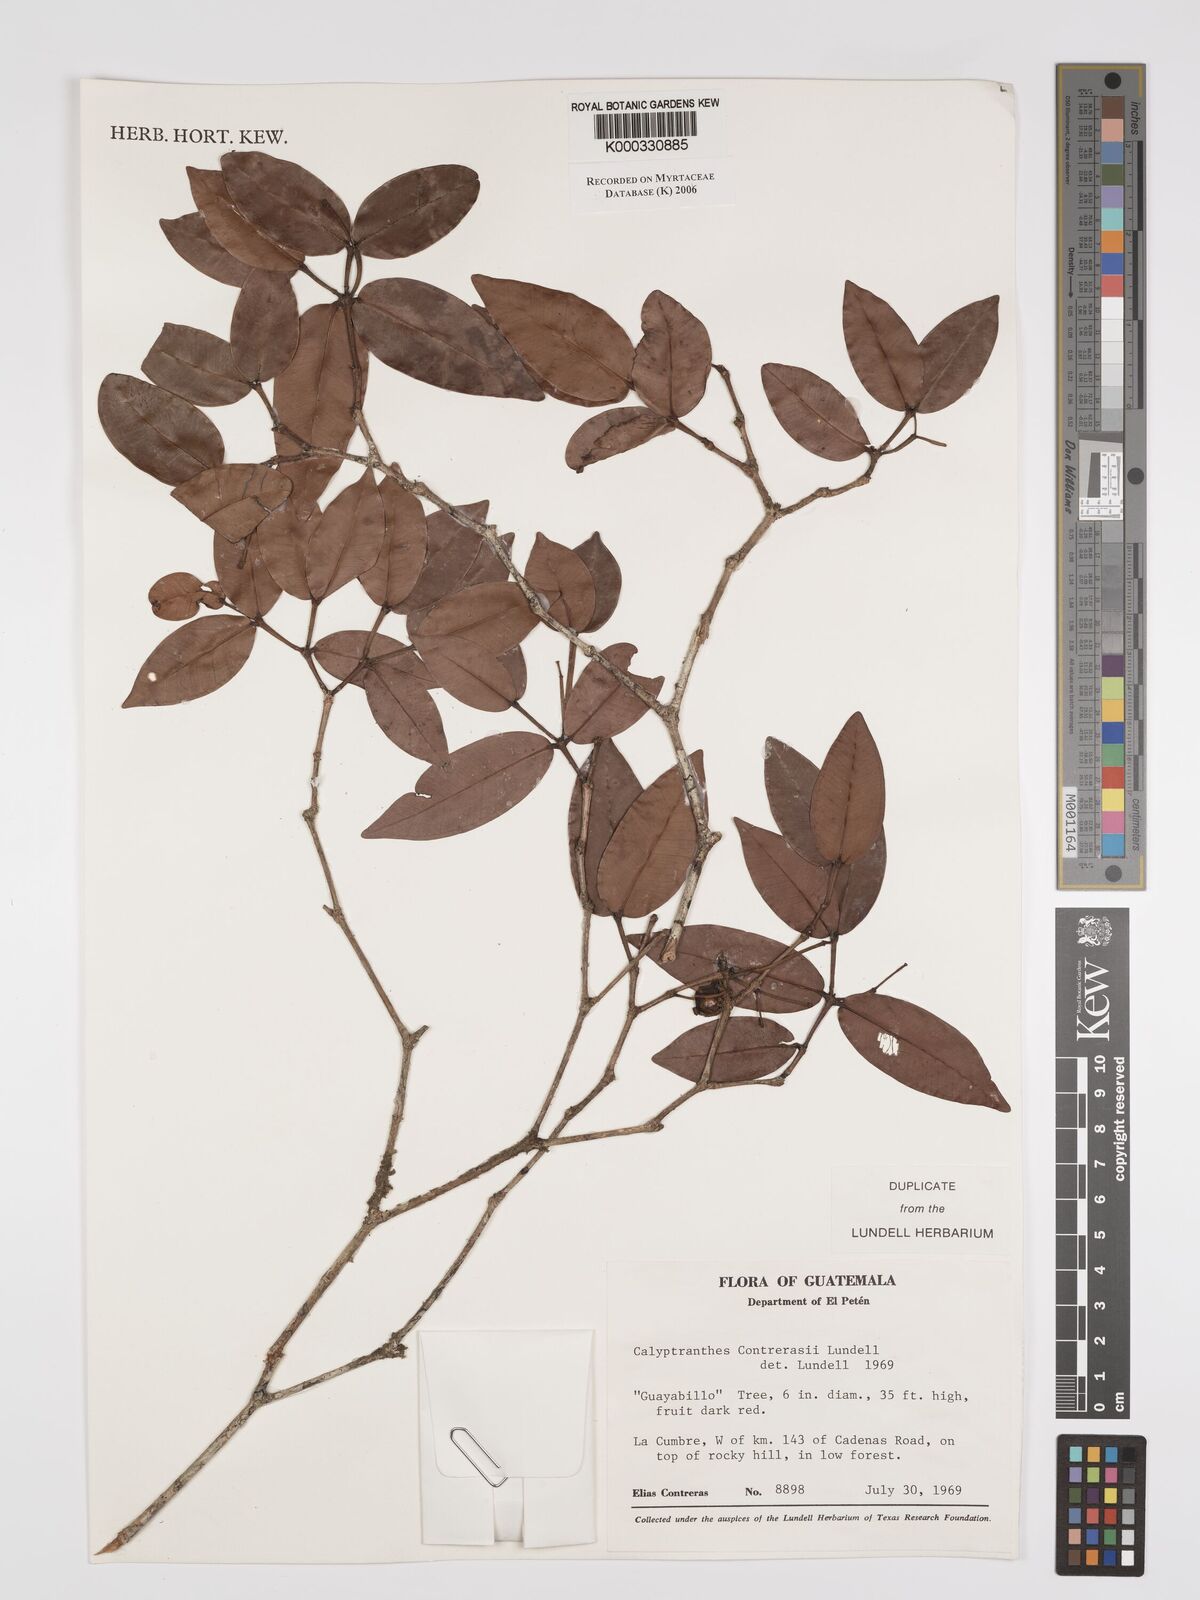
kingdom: Plantae
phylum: Tracheophyta
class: Magnoliopsida
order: Myrtales
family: Myrtaceae
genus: Myrcia
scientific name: Myrcia contrerasii
